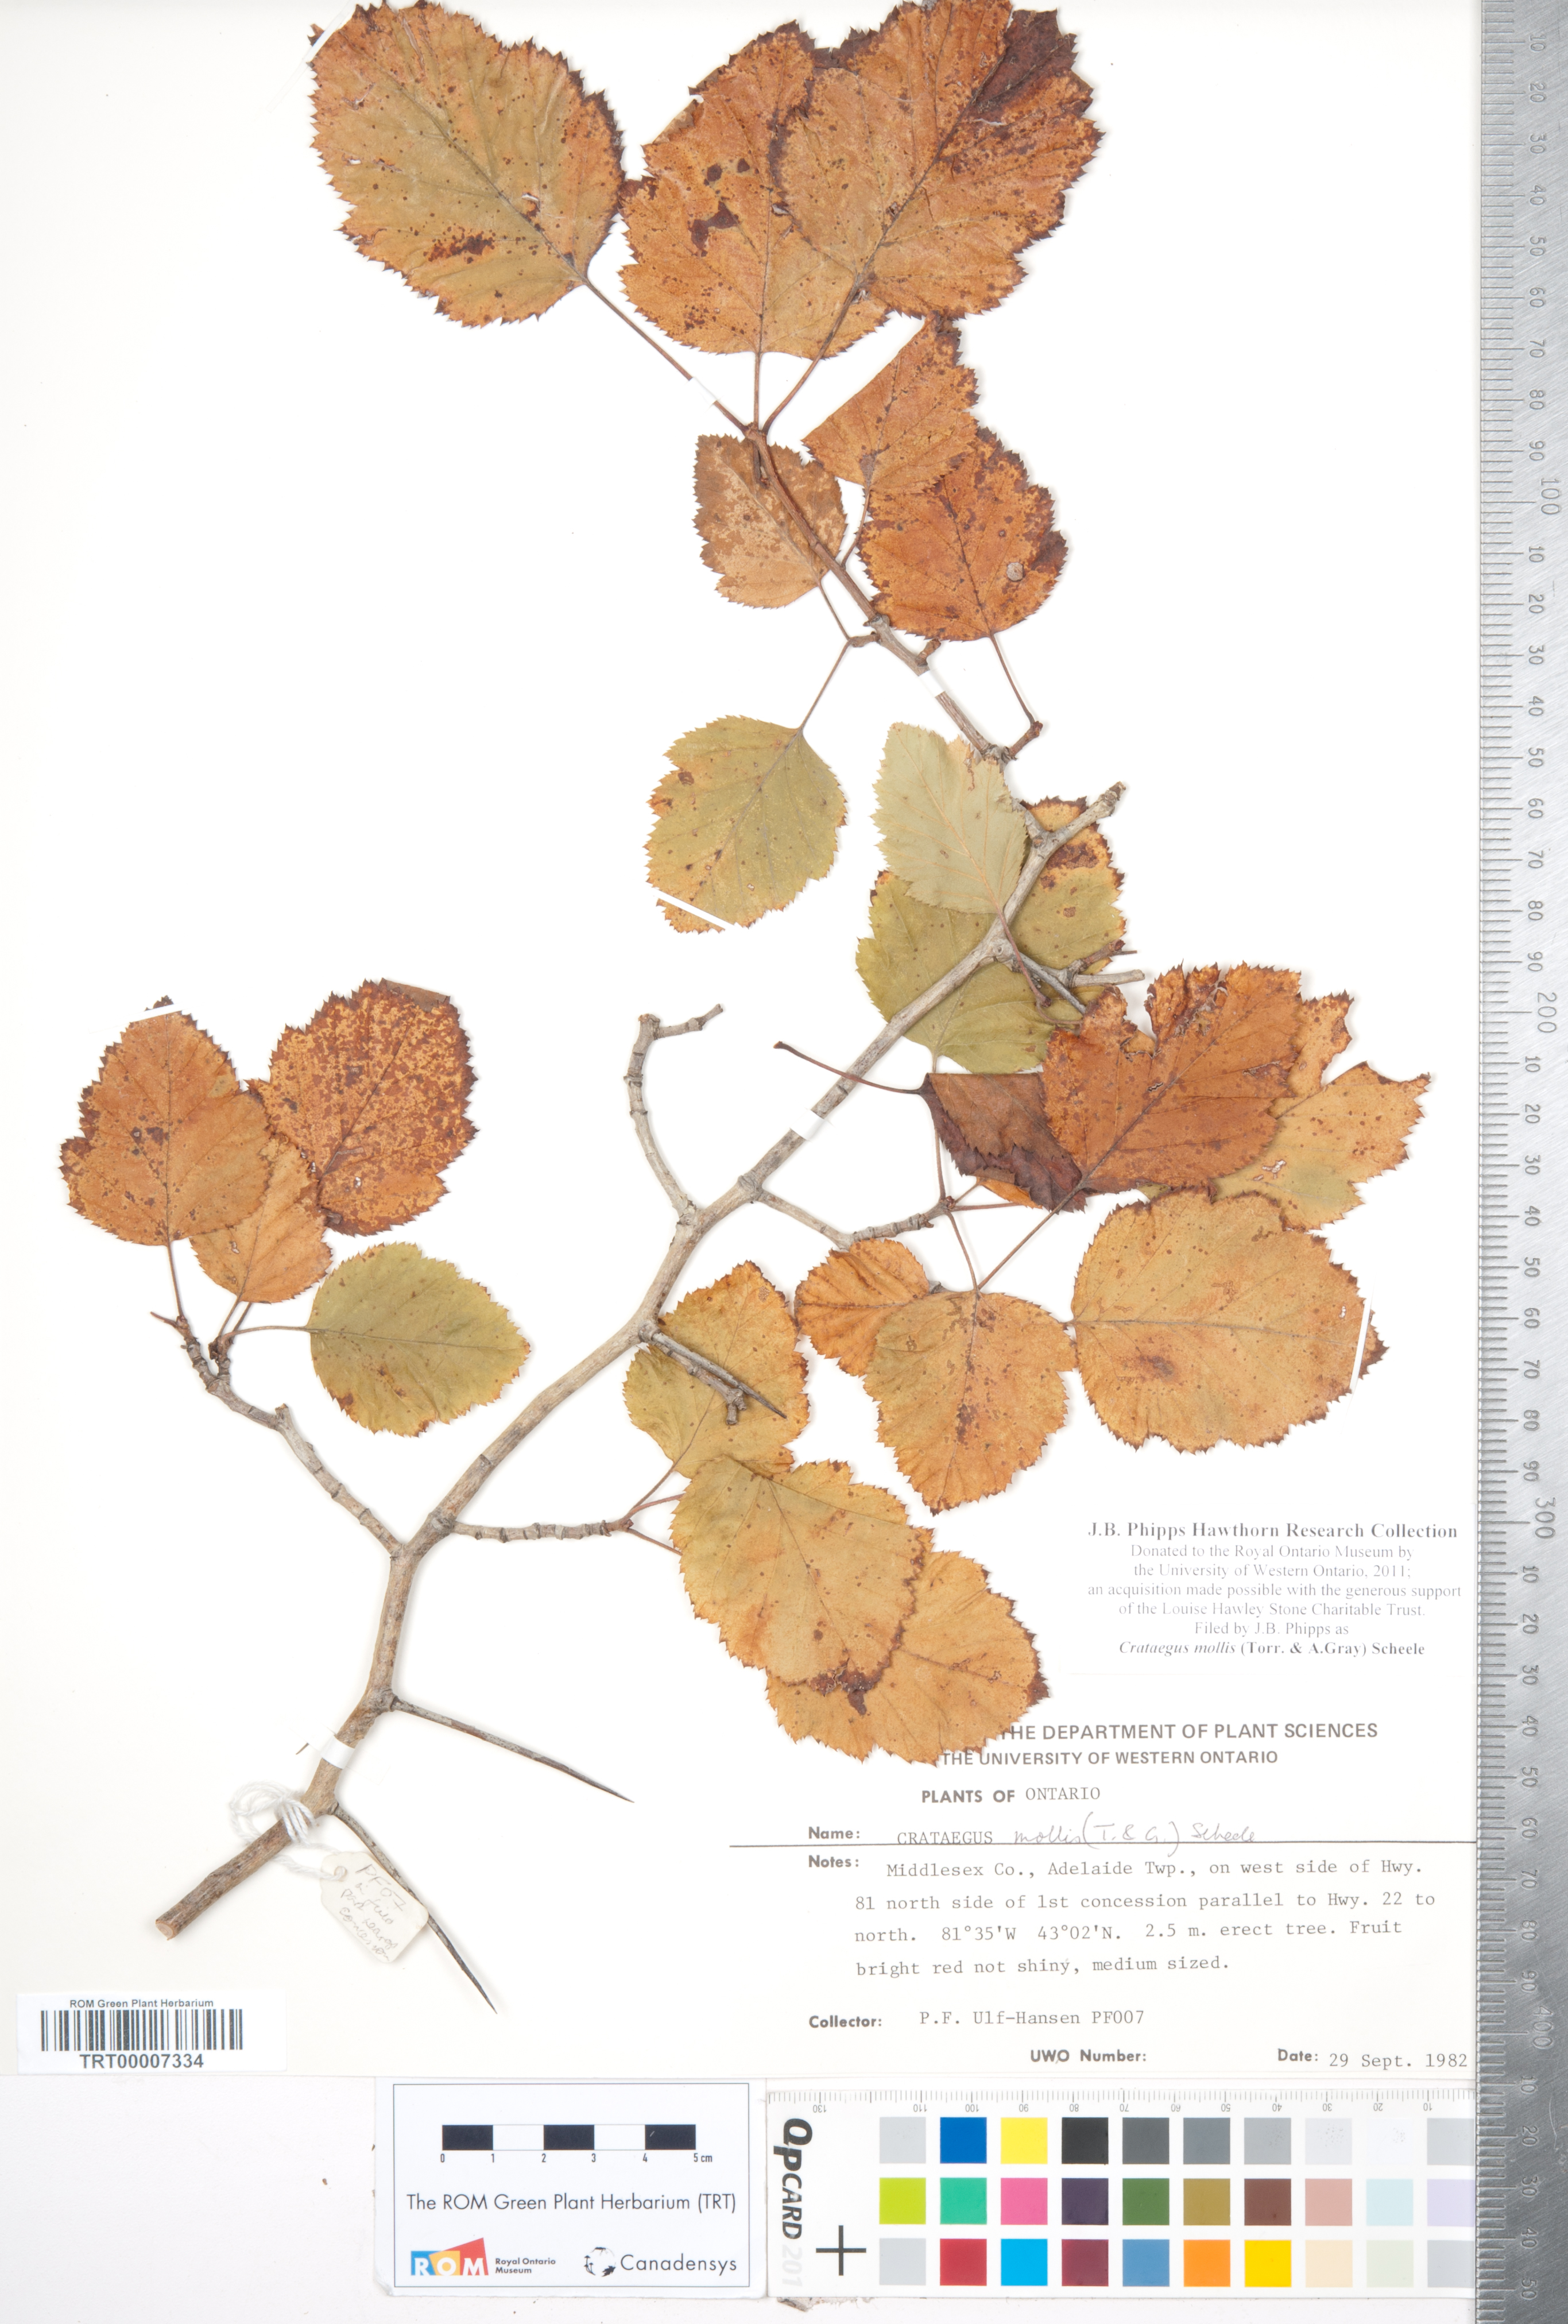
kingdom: Plantae
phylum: Tracheophyta
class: Magnoliopsida
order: Rosales
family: Rosaceae
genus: Crataegus
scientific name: Crataegus mollis
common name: Downy hawthorn
